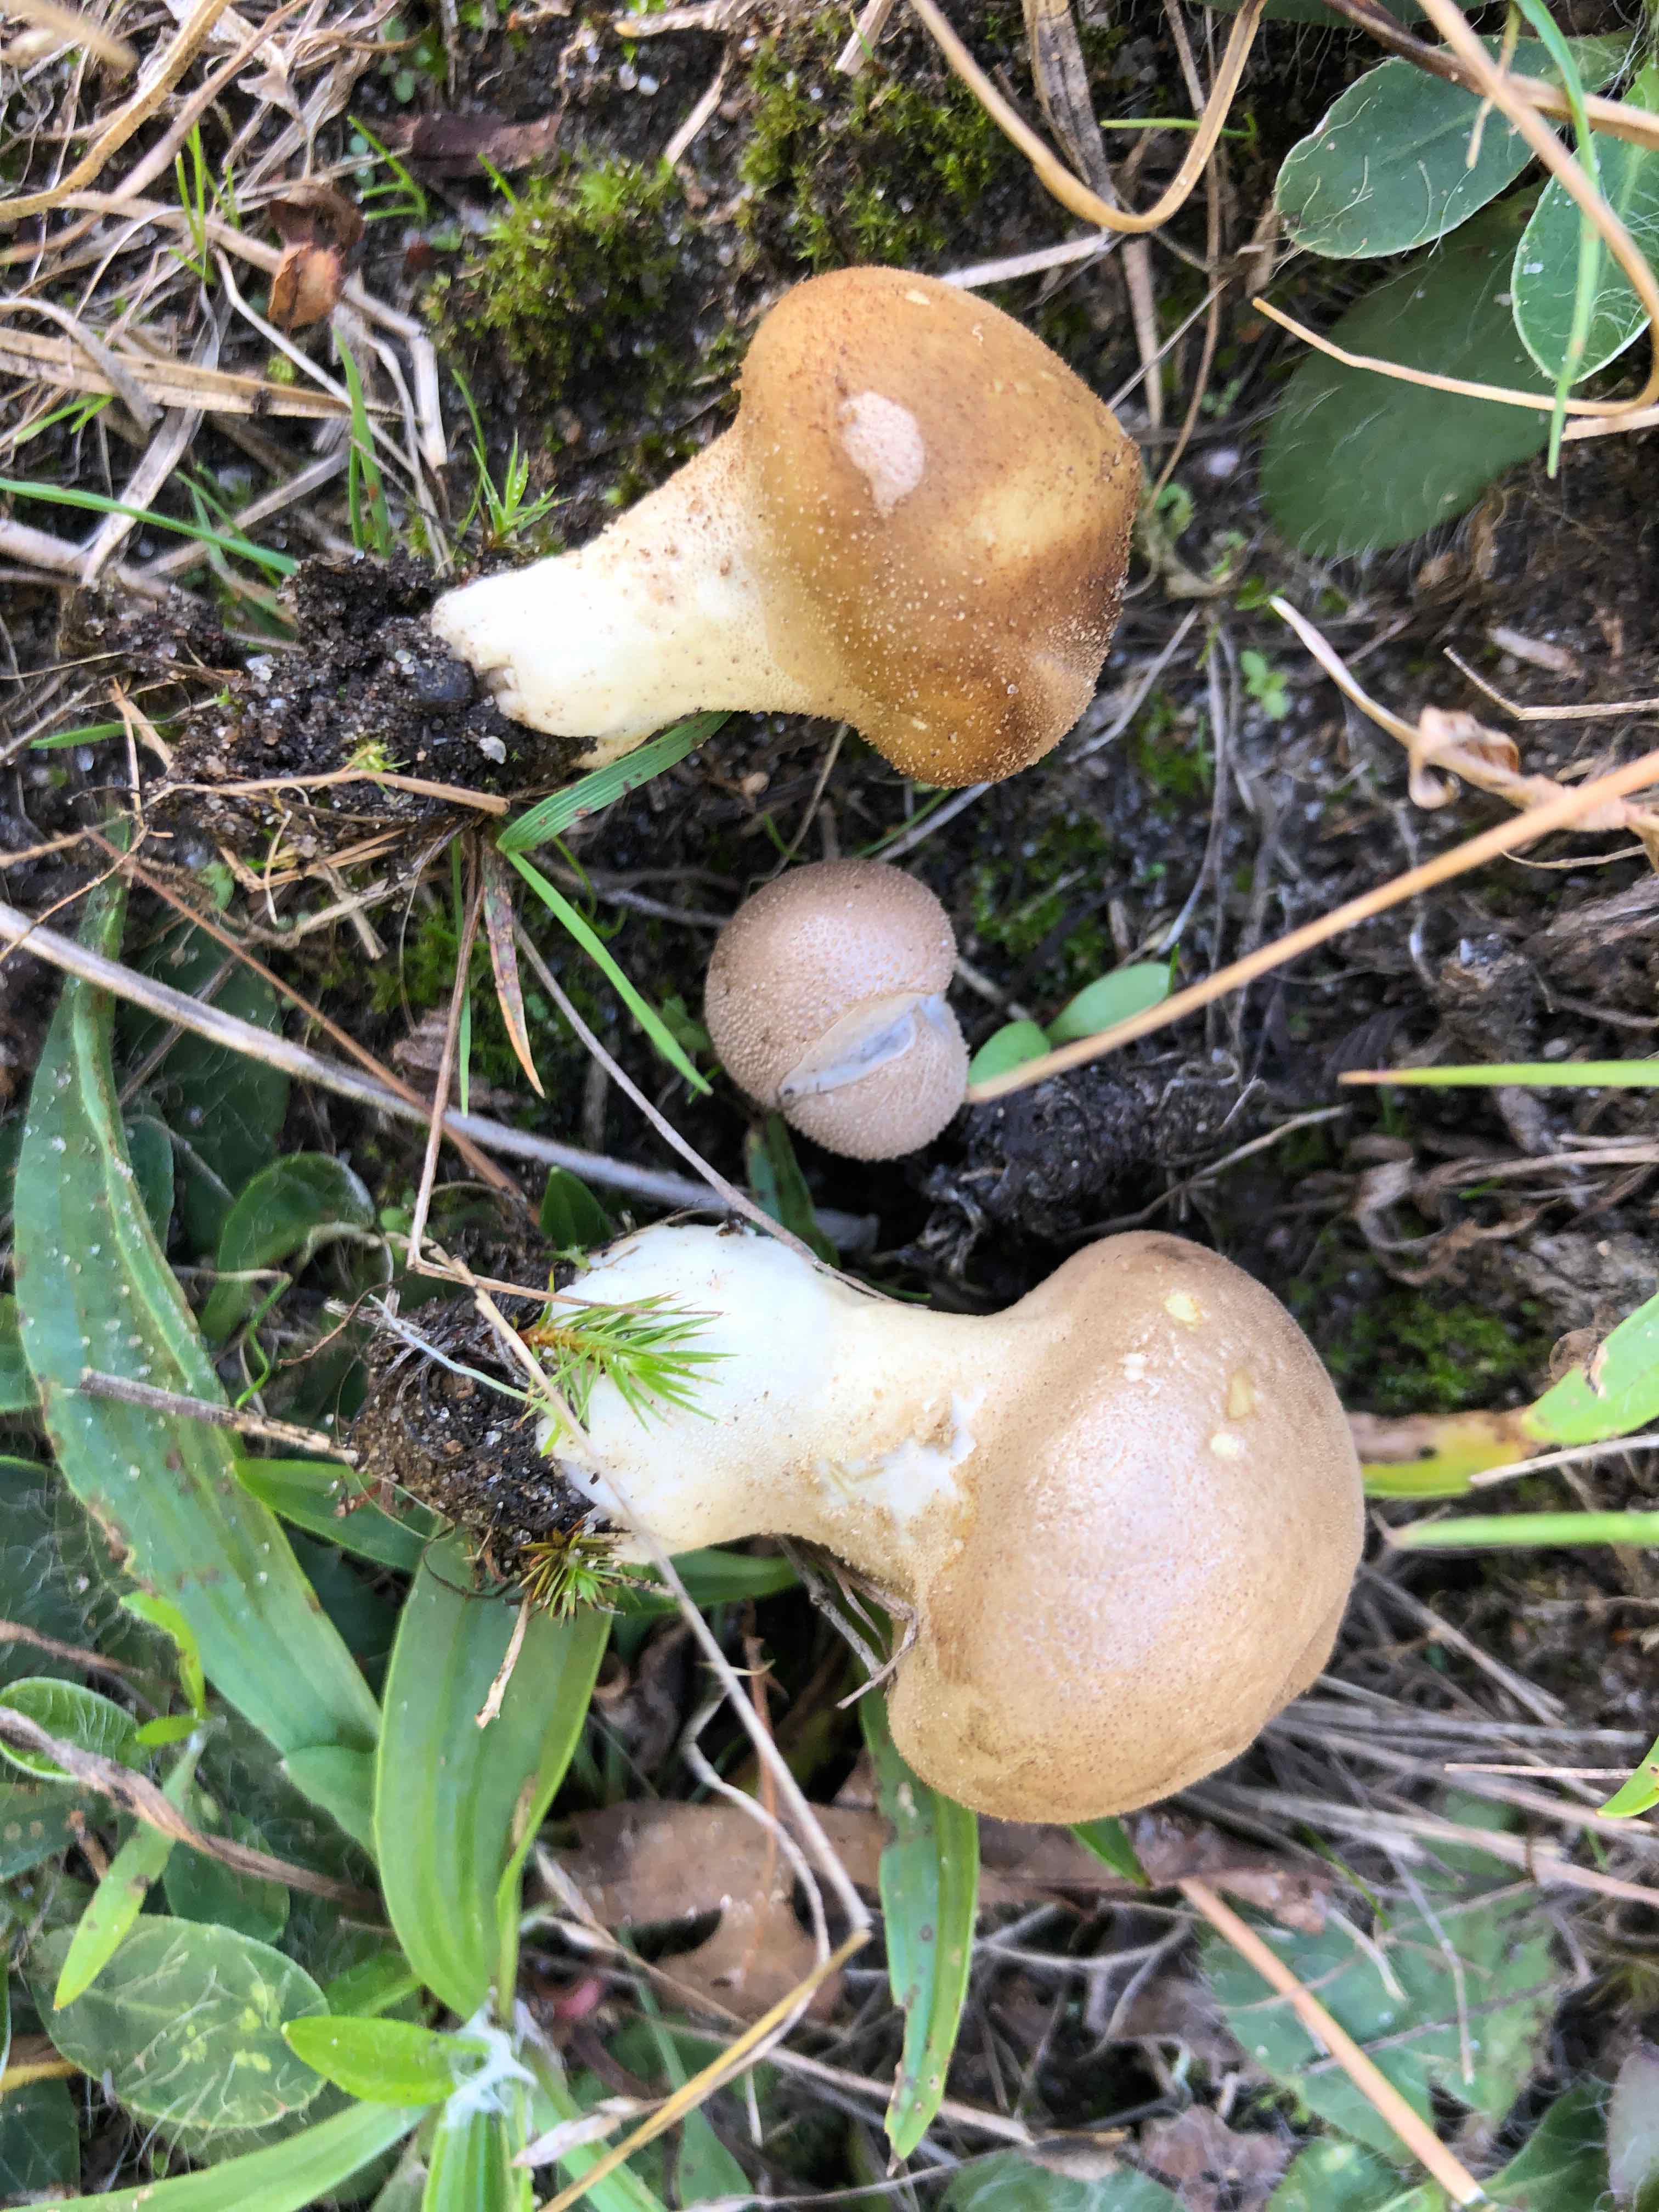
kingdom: Fungi
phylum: Basidiomycota
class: Agaricomycetes
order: Agaricales
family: Lycoperdaceae
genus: Lycoperdon
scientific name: Lycoperdon lividum
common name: mark-støvbold
